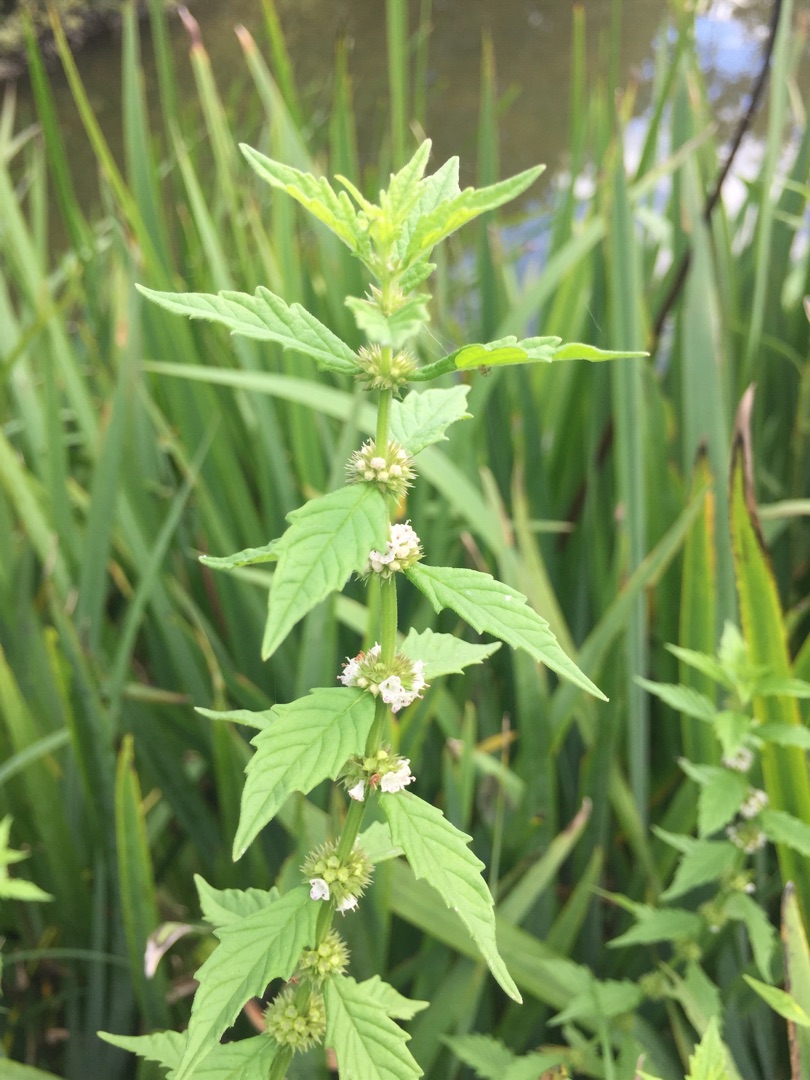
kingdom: Plantae
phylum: Tracheophyta
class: Magnoliopsida
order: Lamiales
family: Lamiaceae
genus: Lycopus
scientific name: Lycopus europaeus
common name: Sværtevæld
